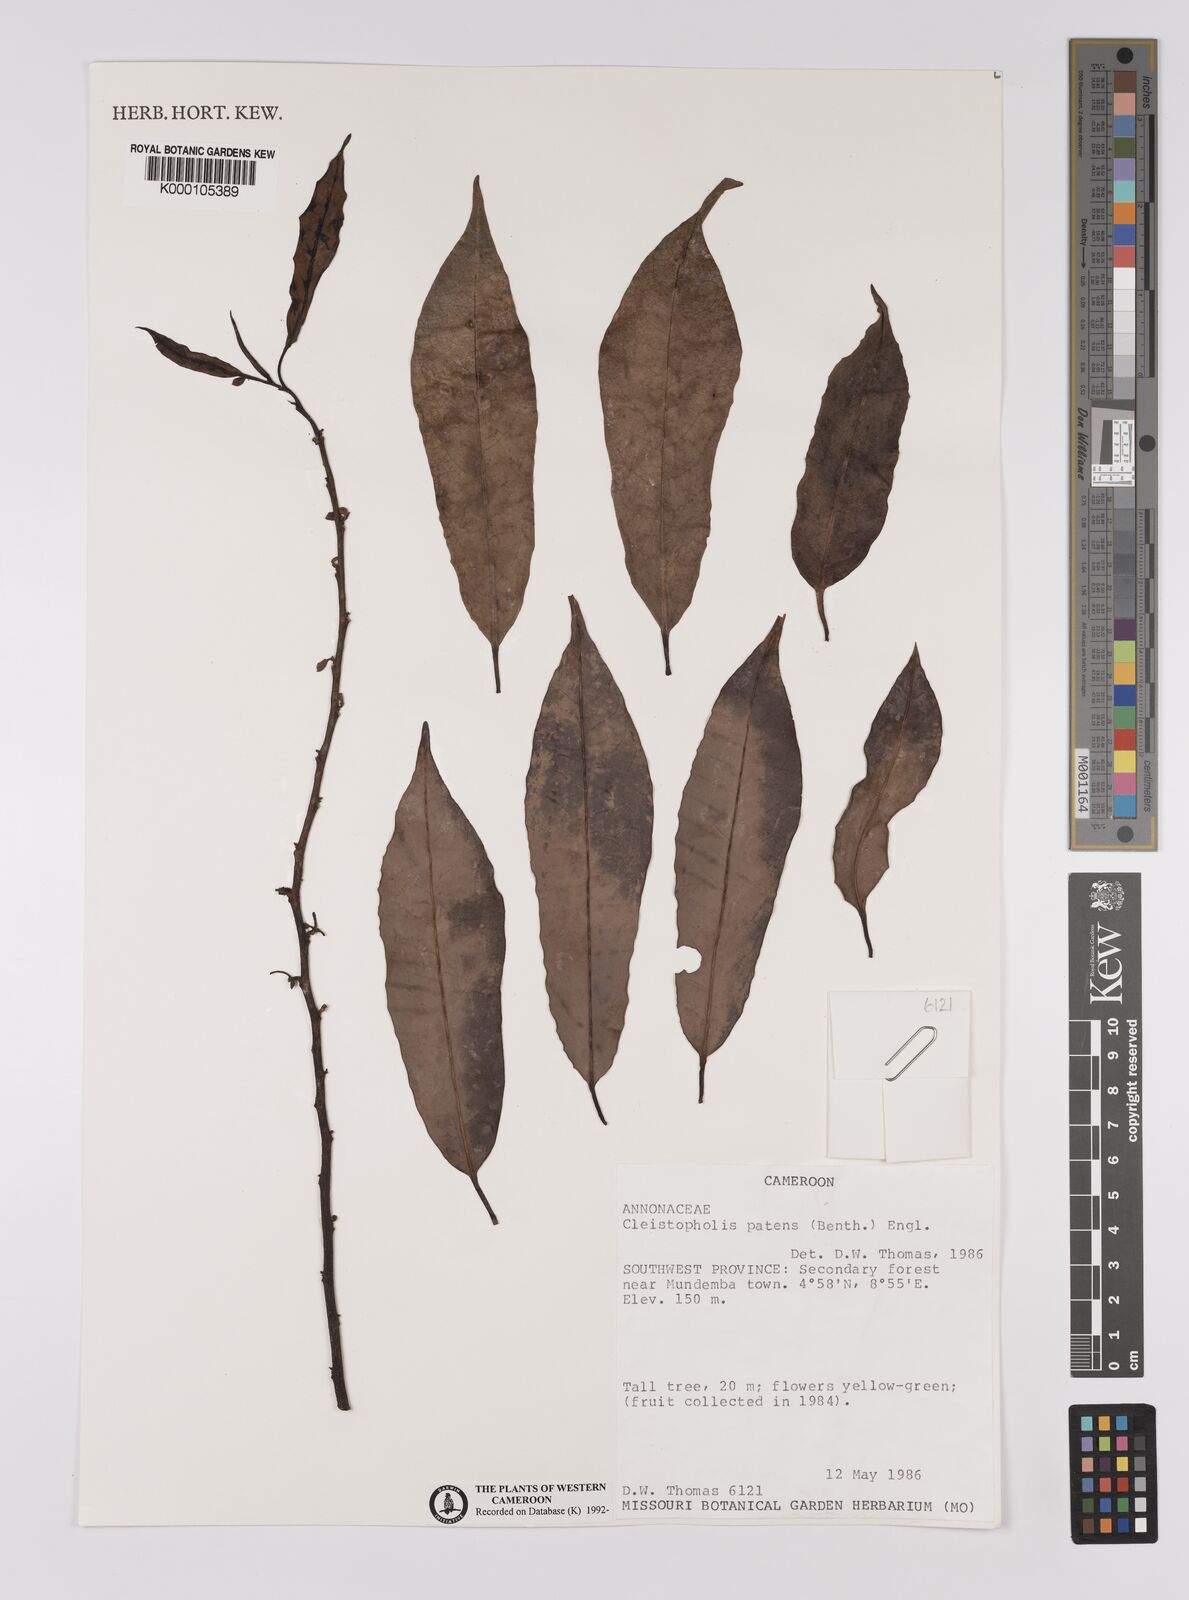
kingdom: Plantae
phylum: Tracheophyta
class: Magnoliopsida
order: Magnoliales
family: Annonaceae
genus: Cleistopholis
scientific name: Cleistopholis patens
